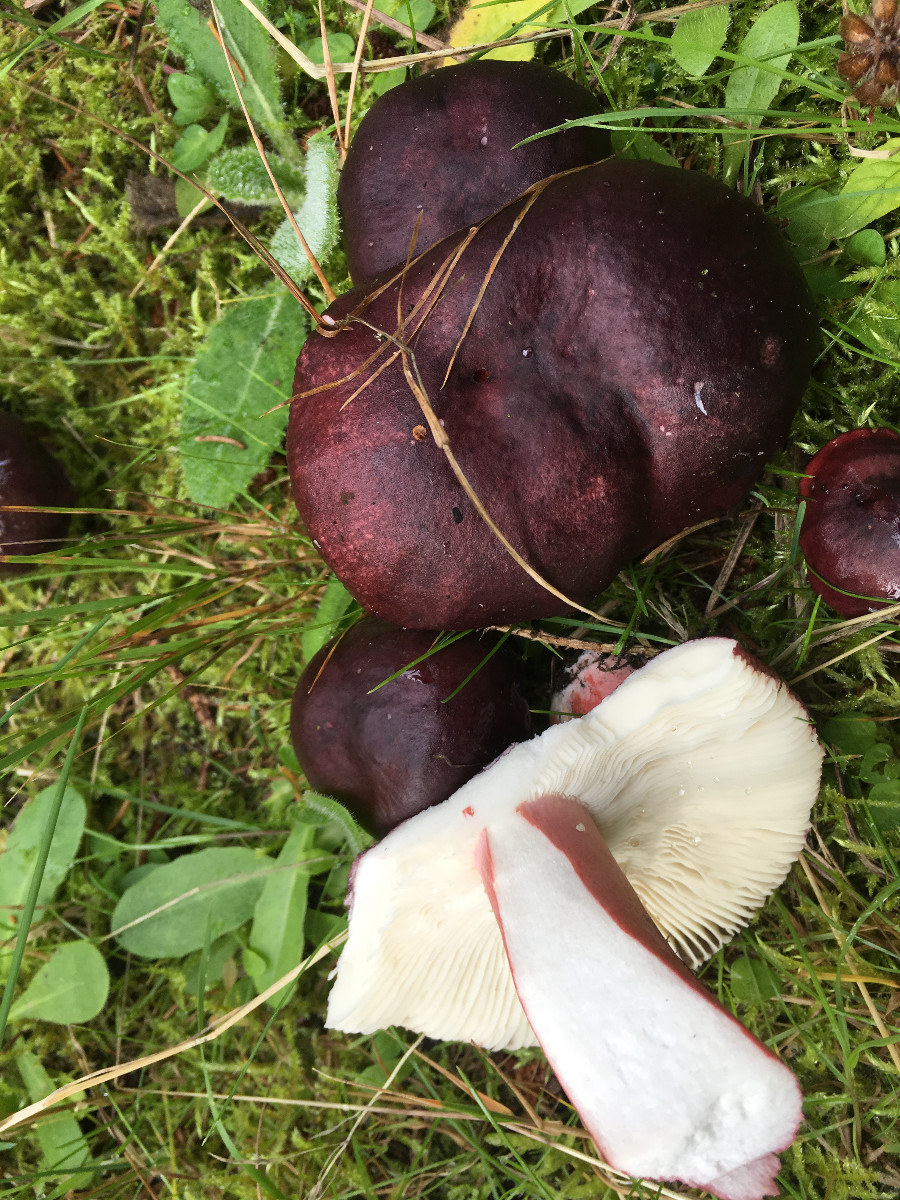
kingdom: Fungi
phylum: Basidiomycota
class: Agaricomycetes
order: Russulales
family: Russulaceae
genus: Russula
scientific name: Russula queletii
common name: Quélets skørhat
